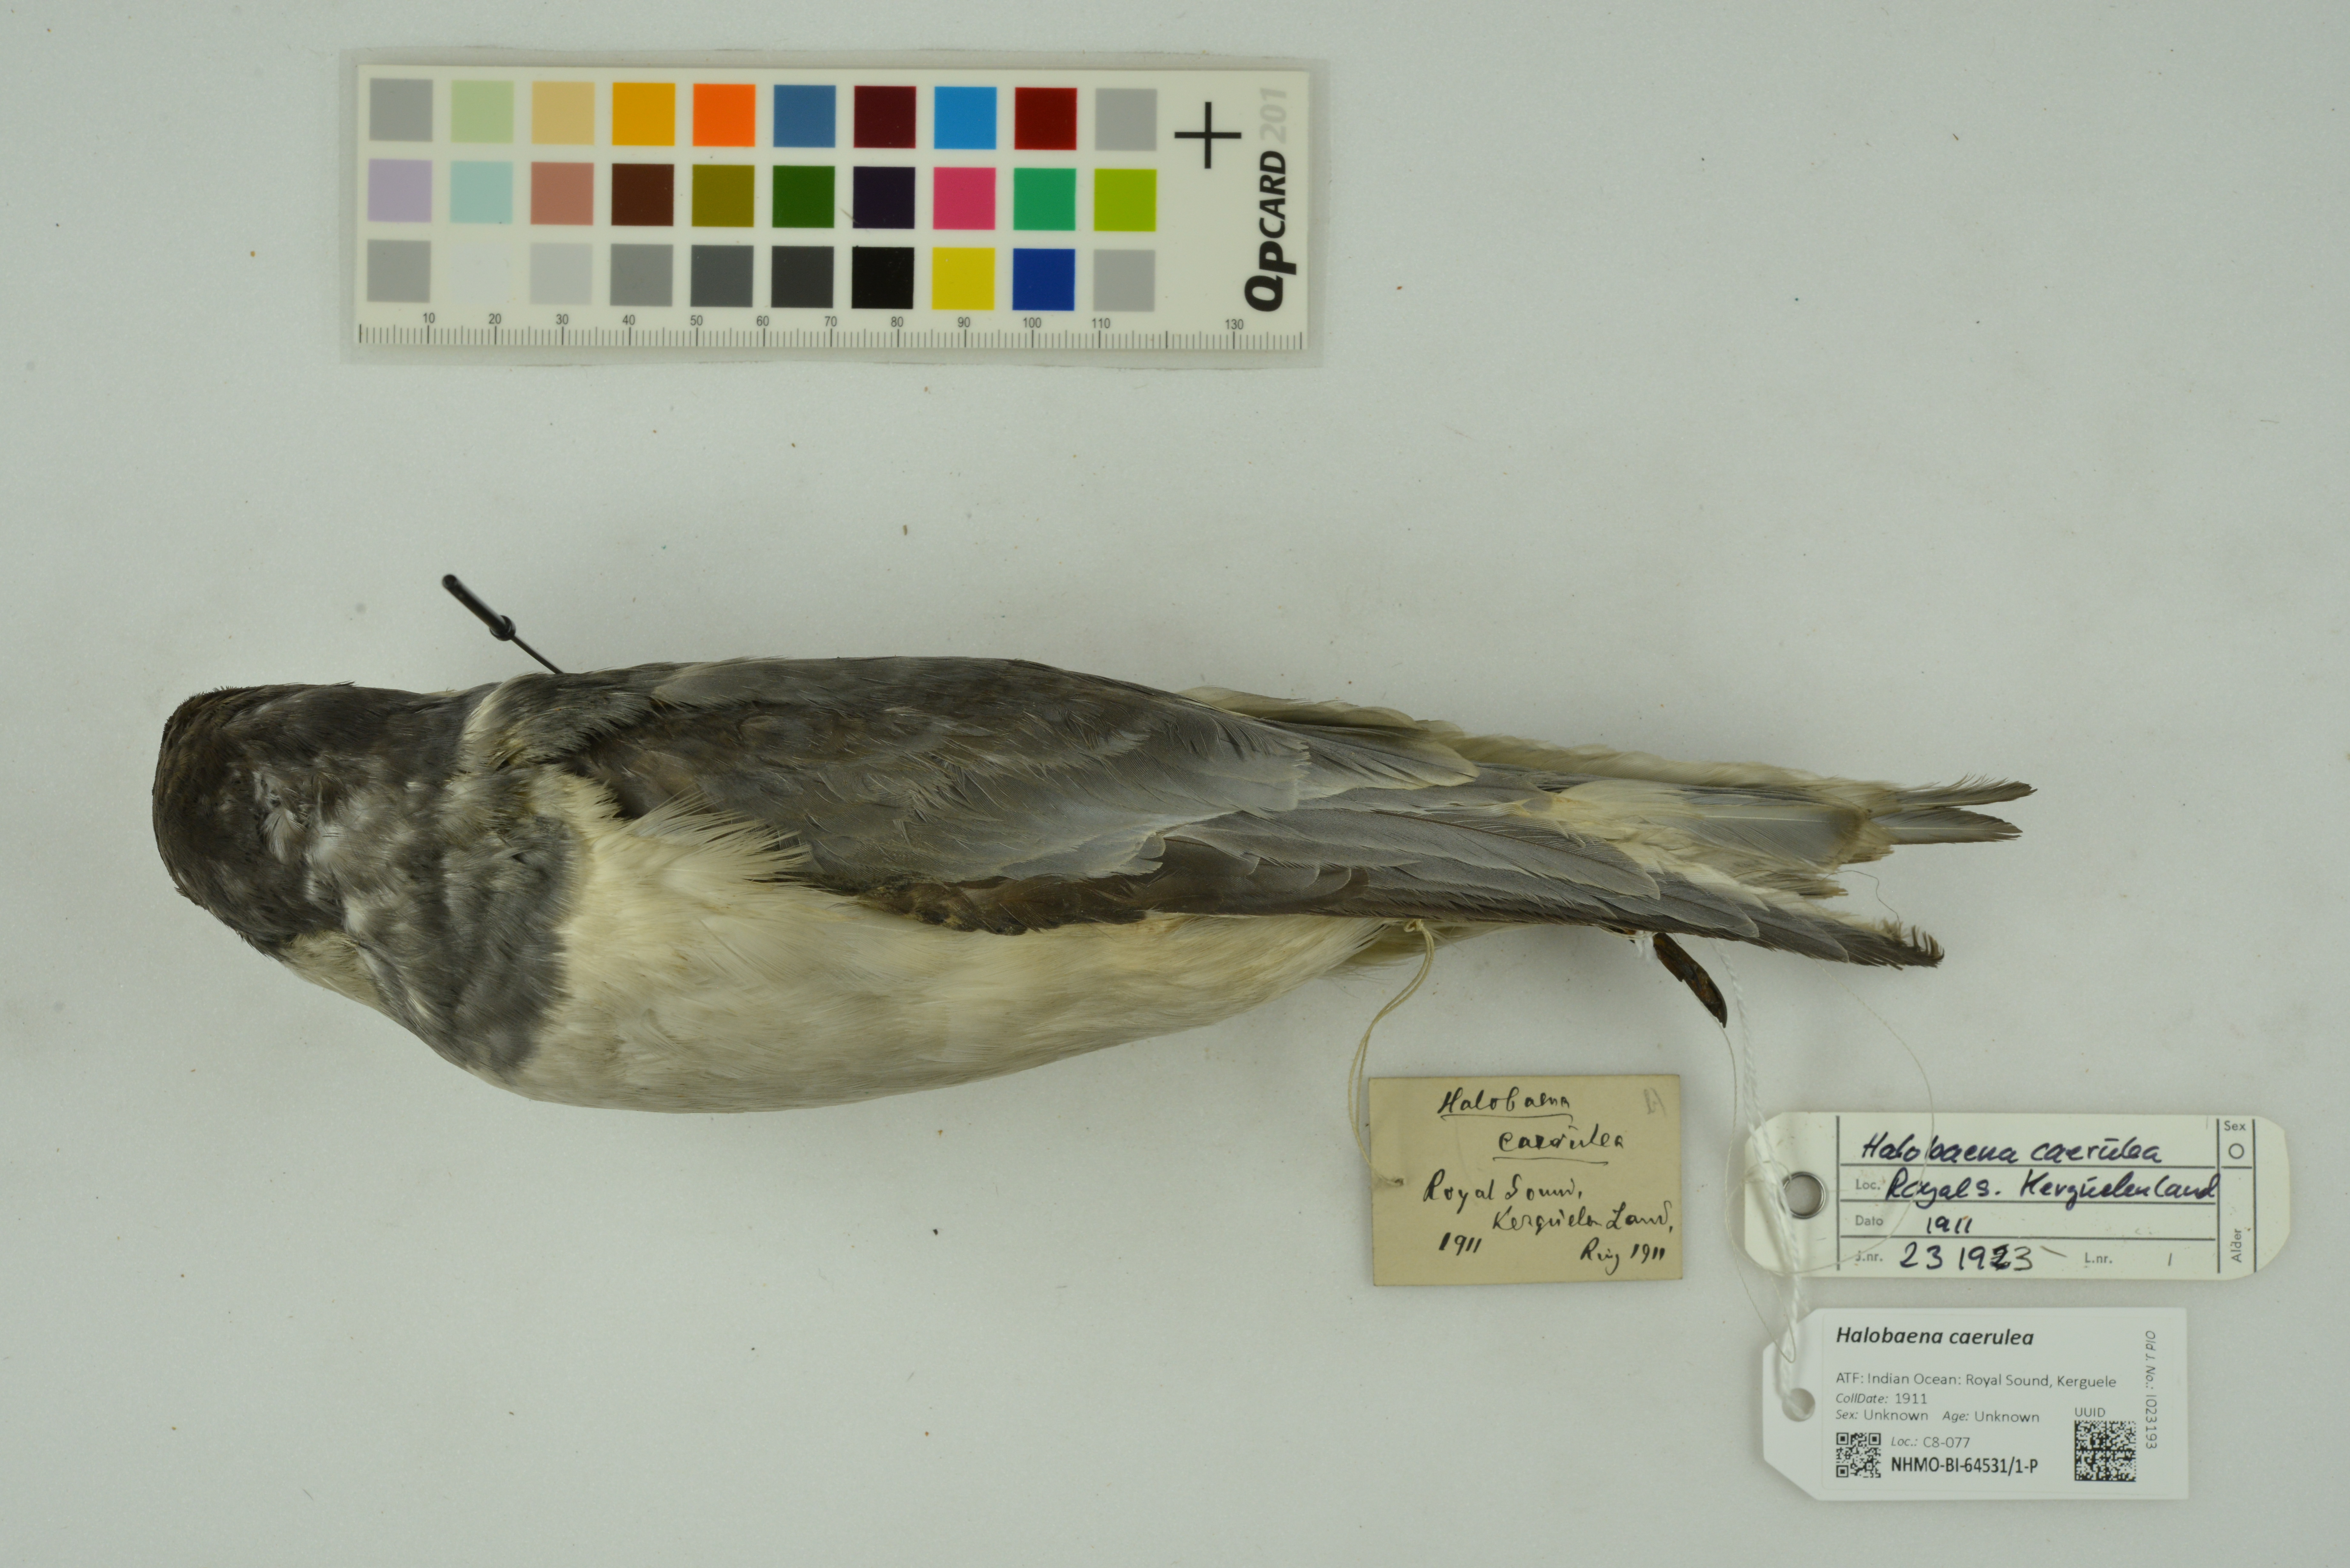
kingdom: Animalia
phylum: Chordata
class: Aves
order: Procellariiformes
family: Procellariidae
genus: Halobaena
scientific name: Halobaena caerulea
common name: Blue petrel
